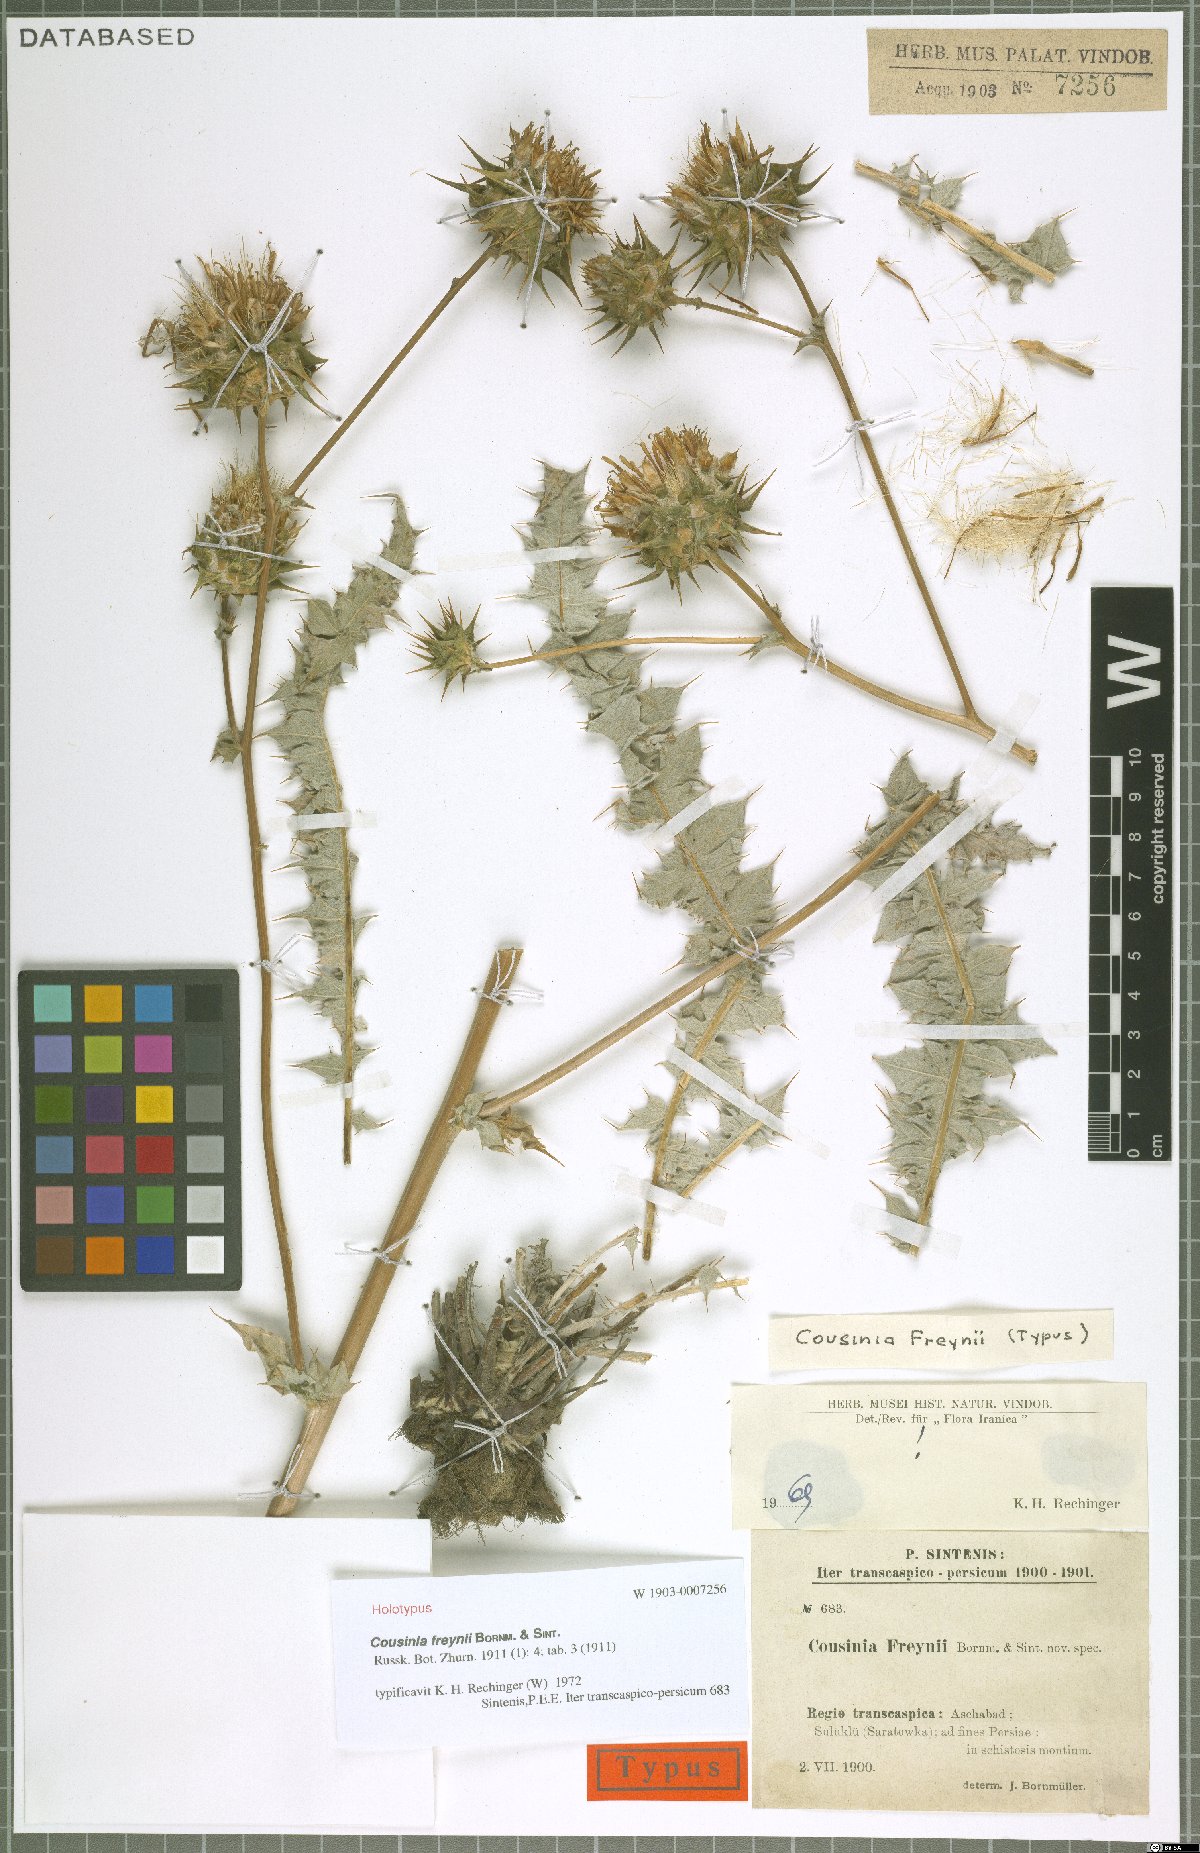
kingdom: Plantae
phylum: Tracheophyta
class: Magnoliopsida
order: Asterales
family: Asteraceae
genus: Cousinia
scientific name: Cousinia freynii
